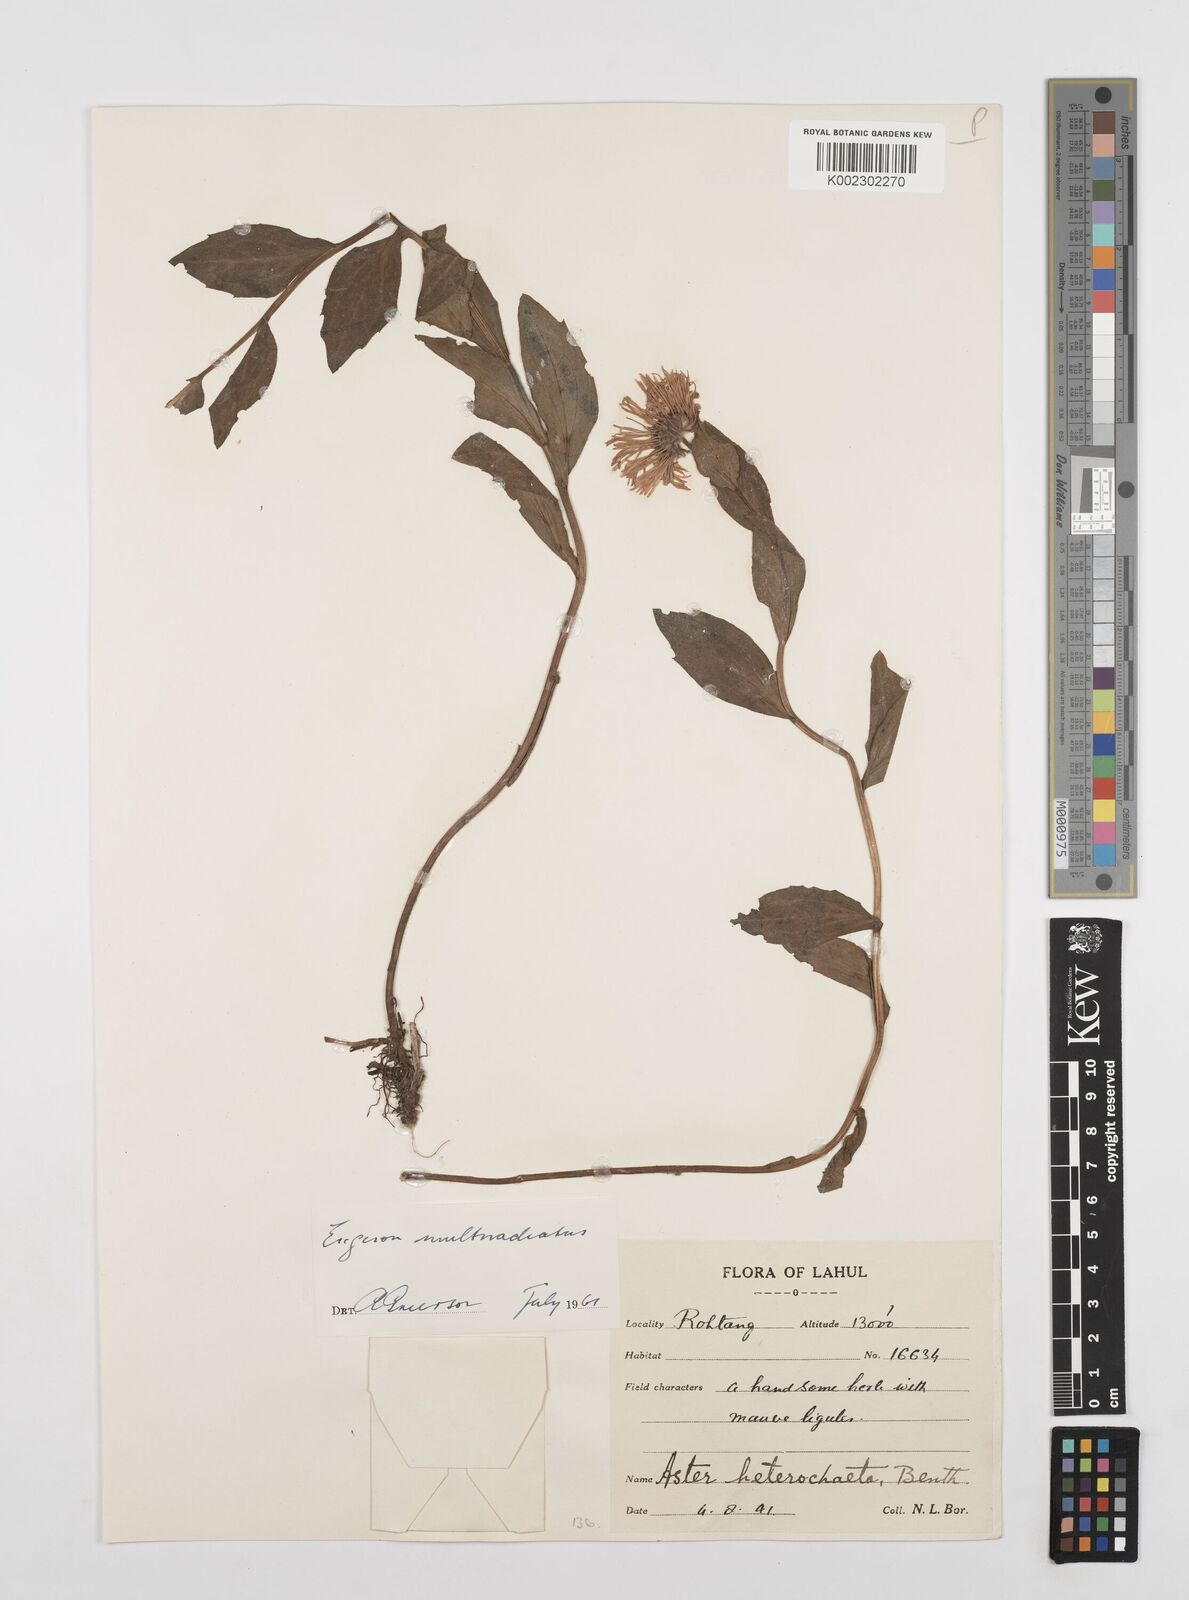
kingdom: Plantae
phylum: Tracheophyta
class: Magnoliopsida
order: Asterales
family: Asteraceae
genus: Erigeron
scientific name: Erigeron multiradiatus
